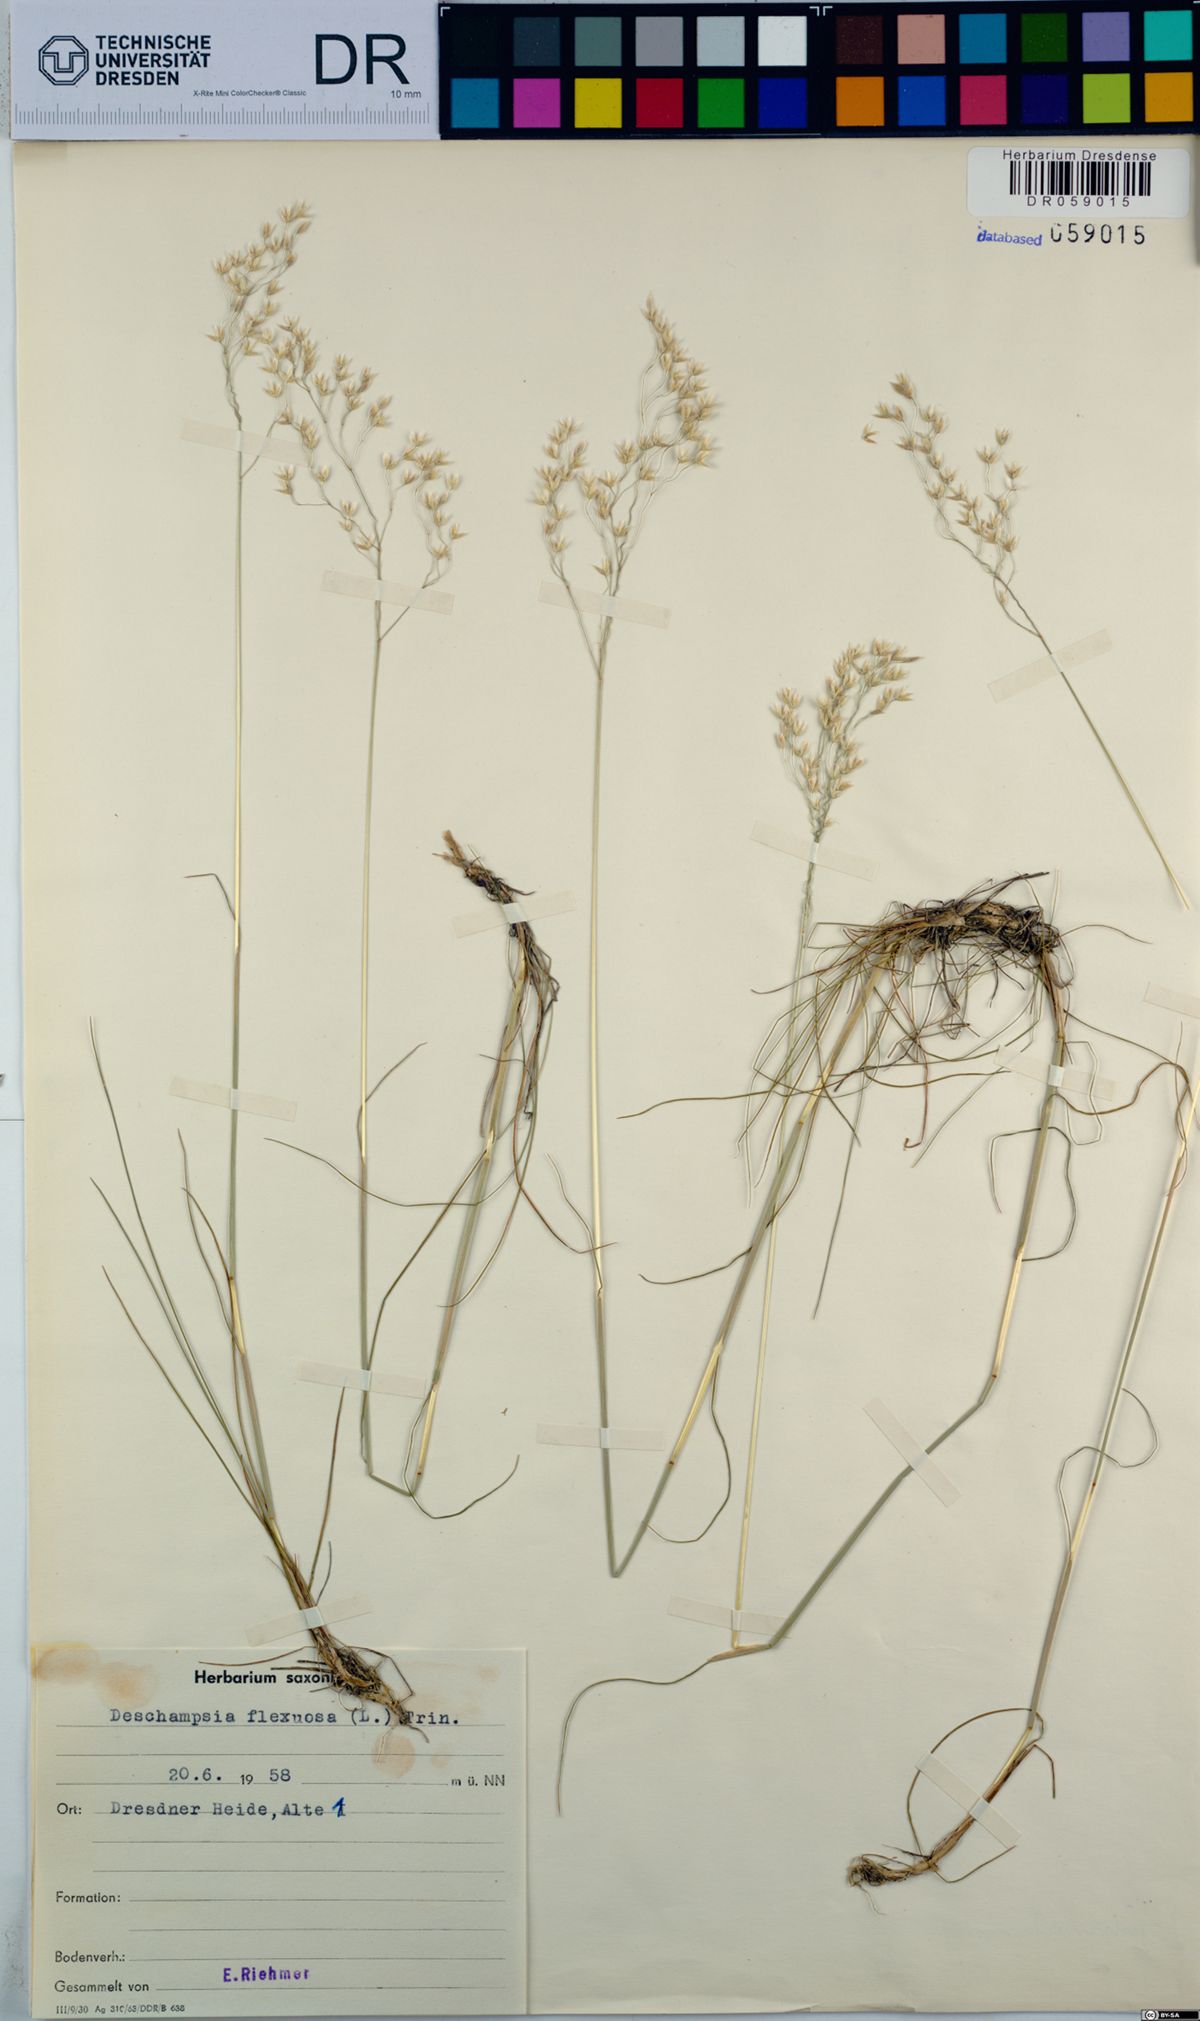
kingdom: Plantae
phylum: Tracheophyta
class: Liliopsida
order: Poales
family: Poaceae
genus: Avenella
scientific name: Avenella flexuosa
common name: Wavy hairgrass
